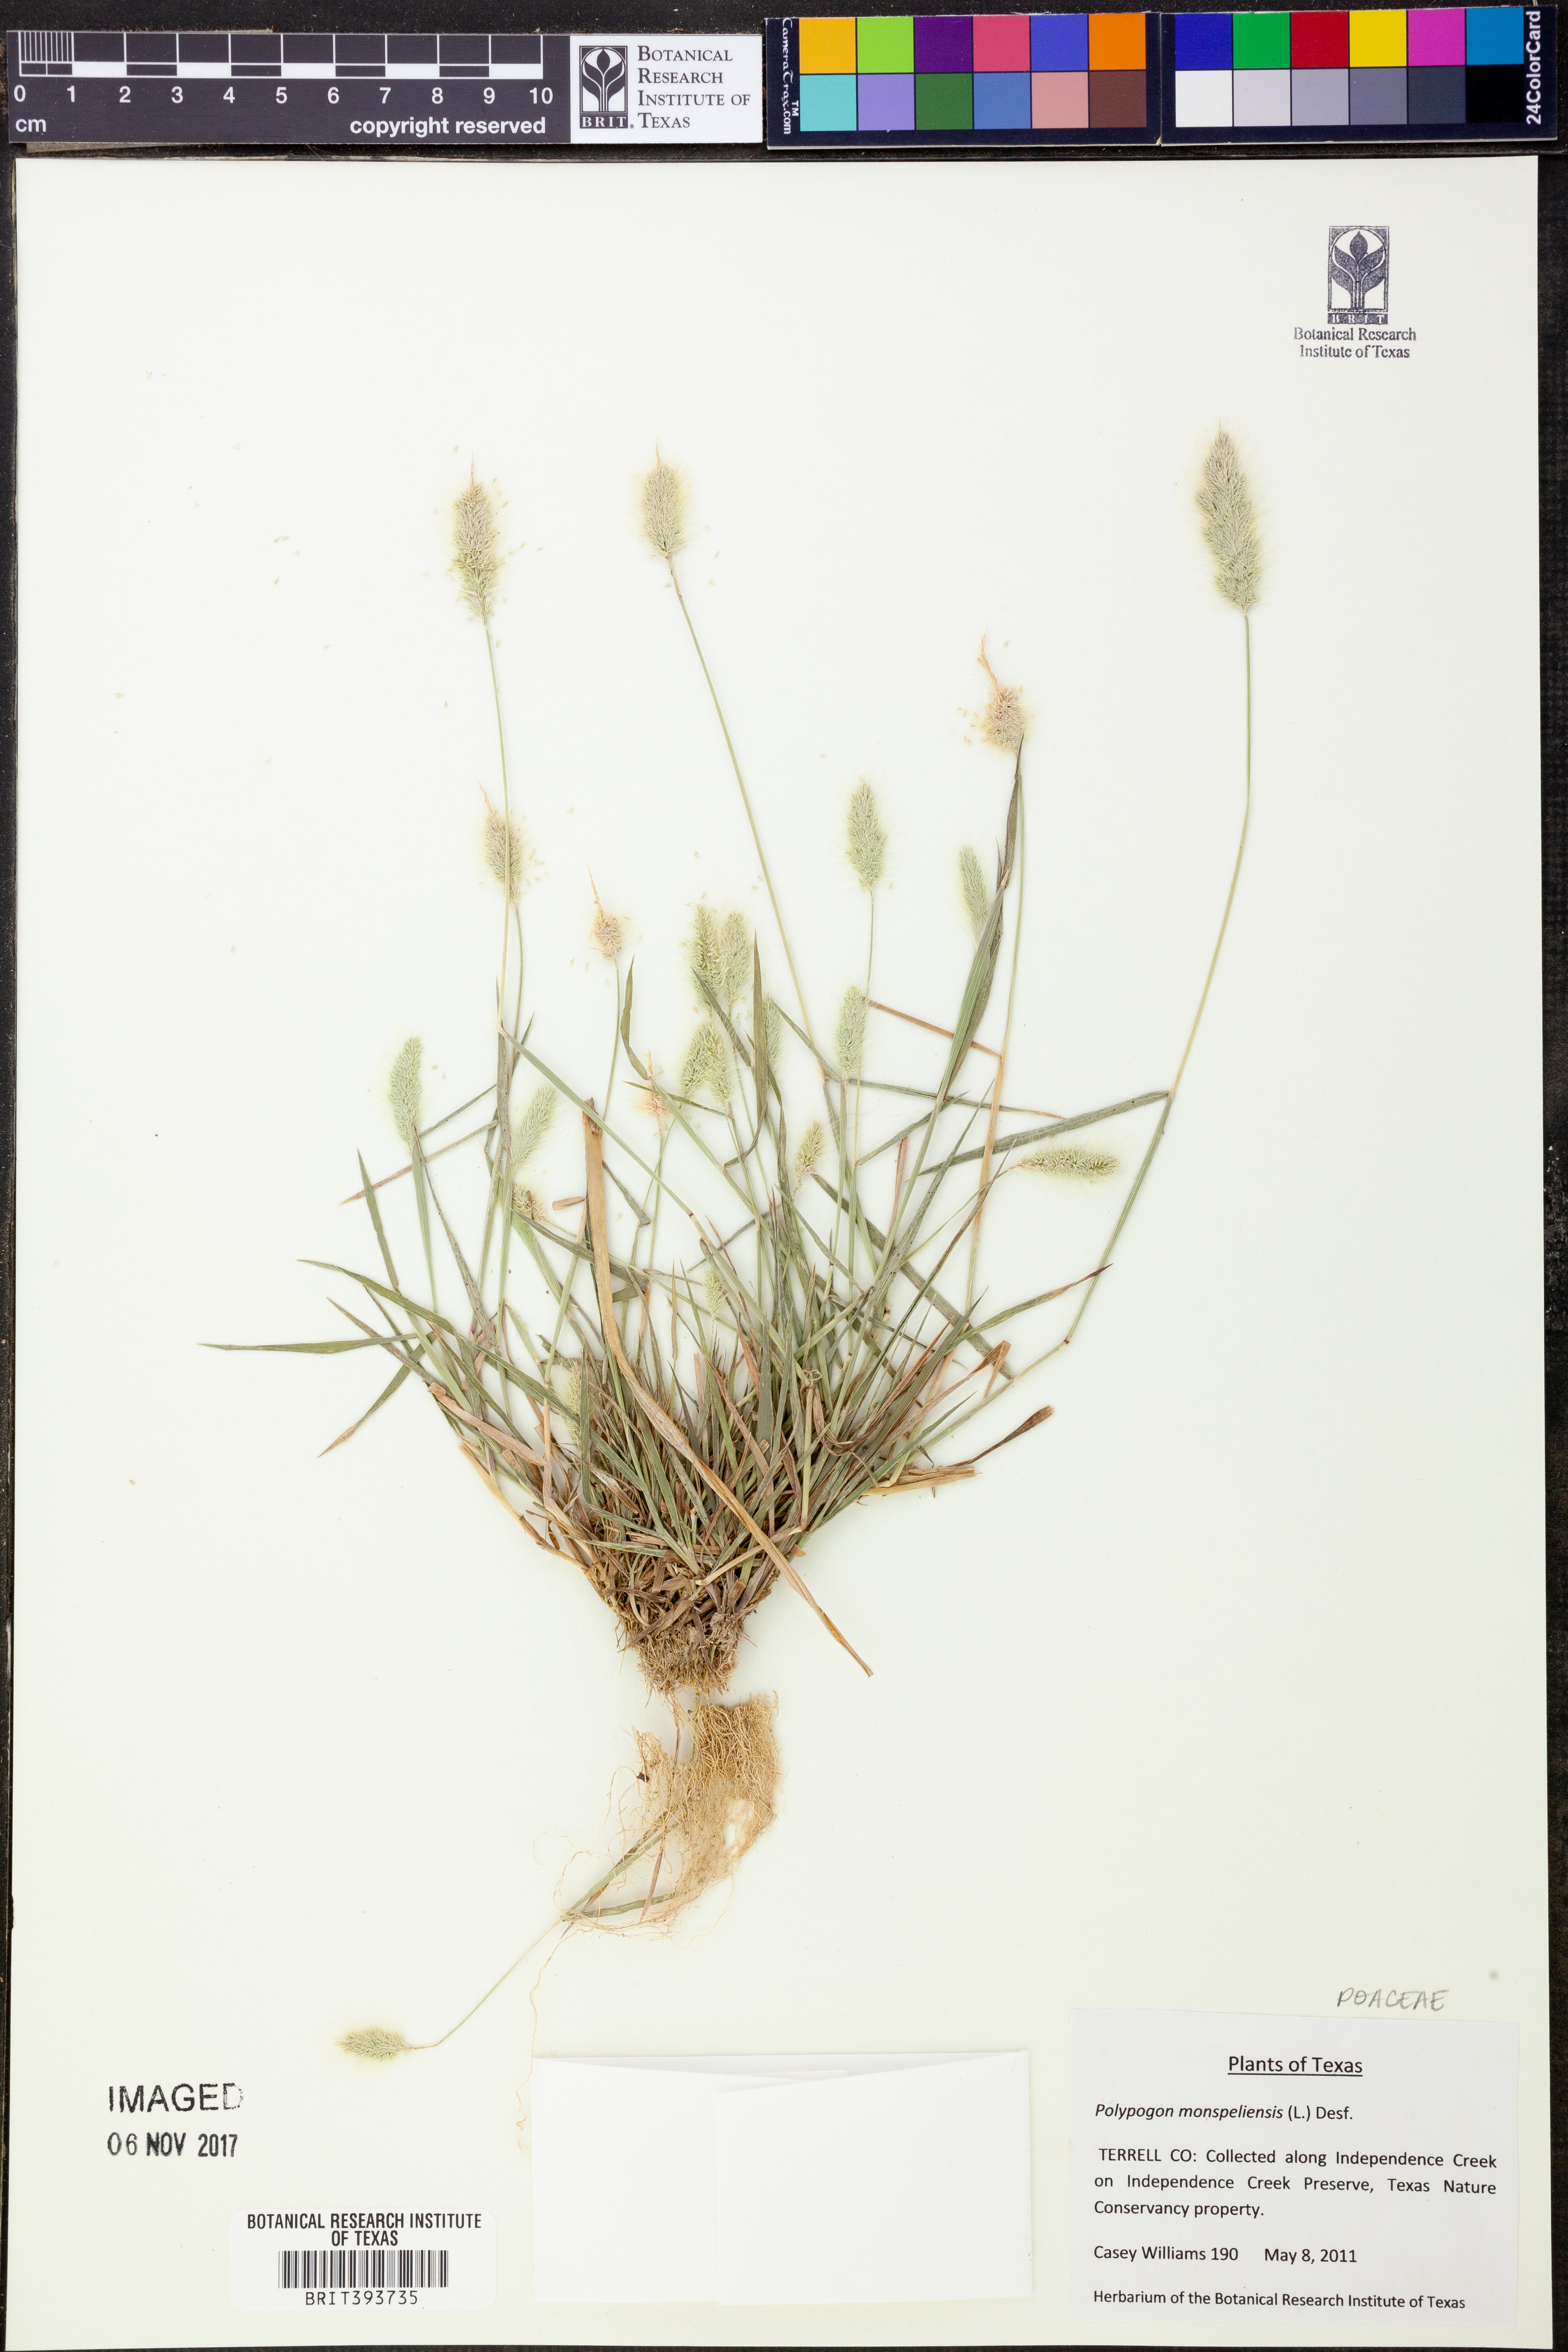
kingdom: Plantae
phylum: Tracheophyta
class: Liliopsida
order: Poales
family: Poaceae
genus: Polypogon
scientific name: Polypogon monspeliensis
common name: Annual rabbitsfoot grass
